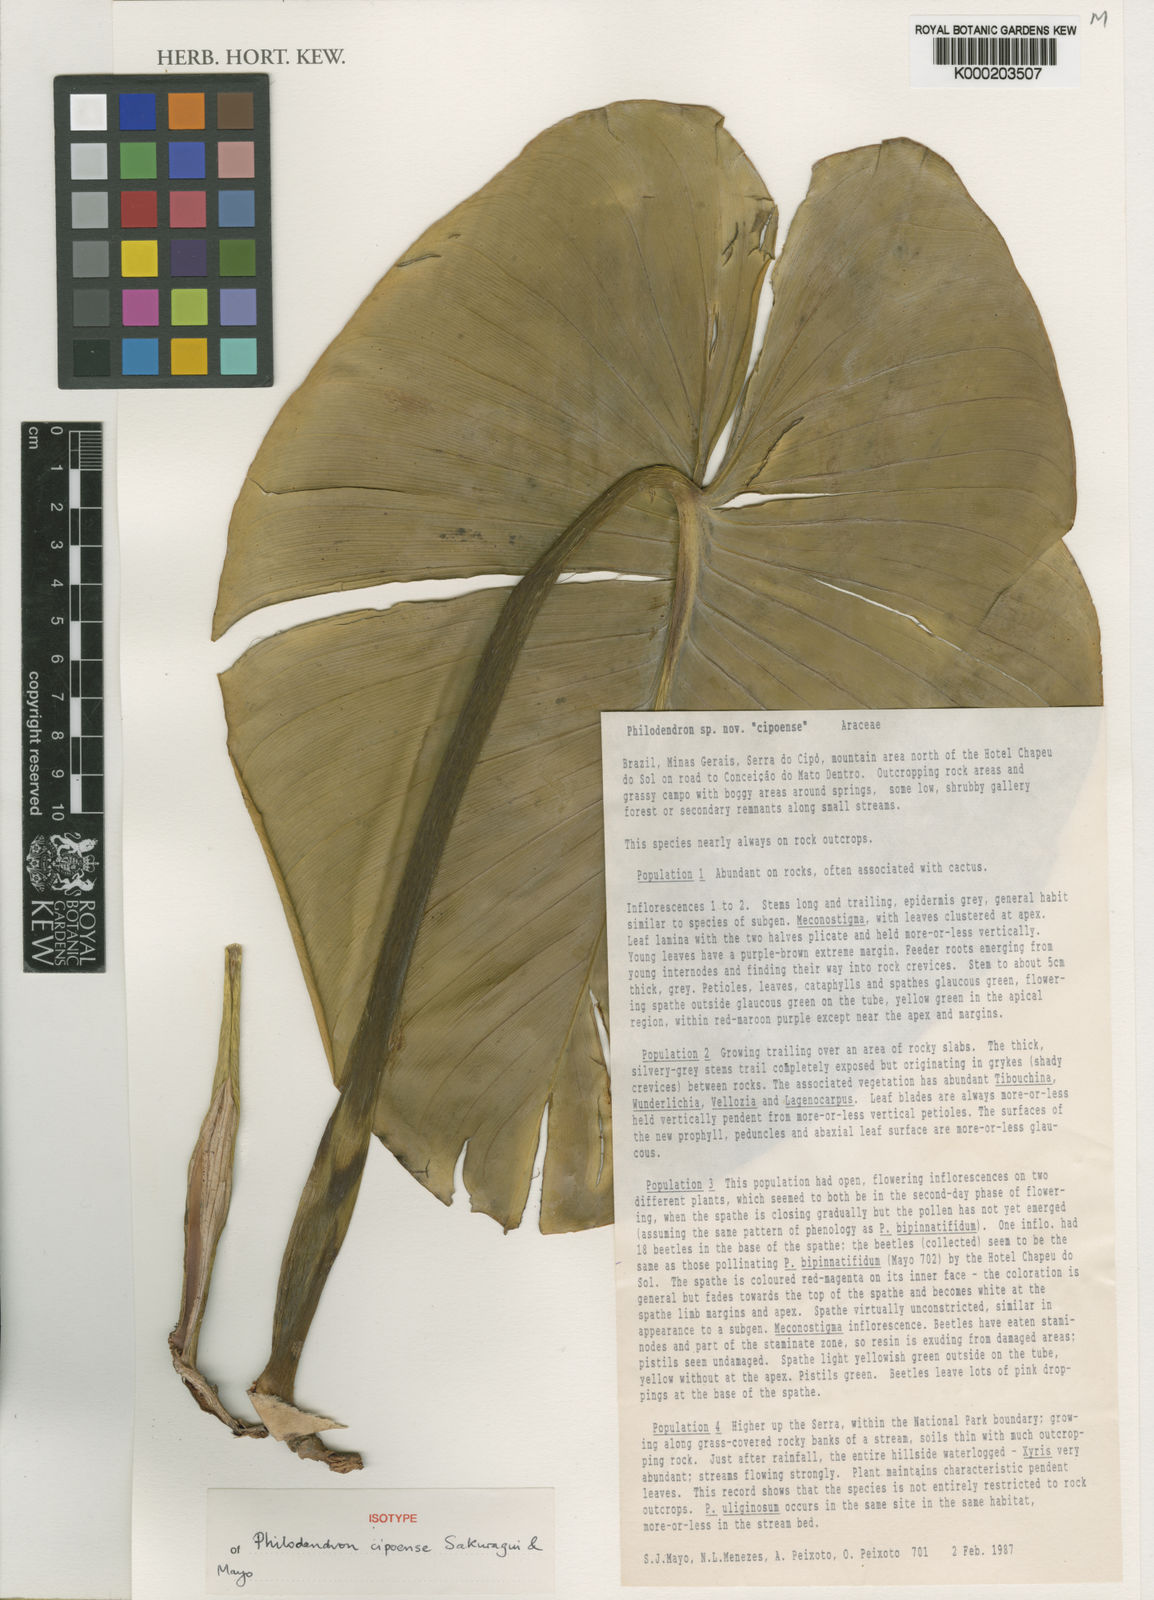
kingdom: Plantae
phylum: Tracheophyta
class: Liliopsida
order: Alismatales
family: Araceae
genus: Philodendron
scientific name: Philodendron cipoense
